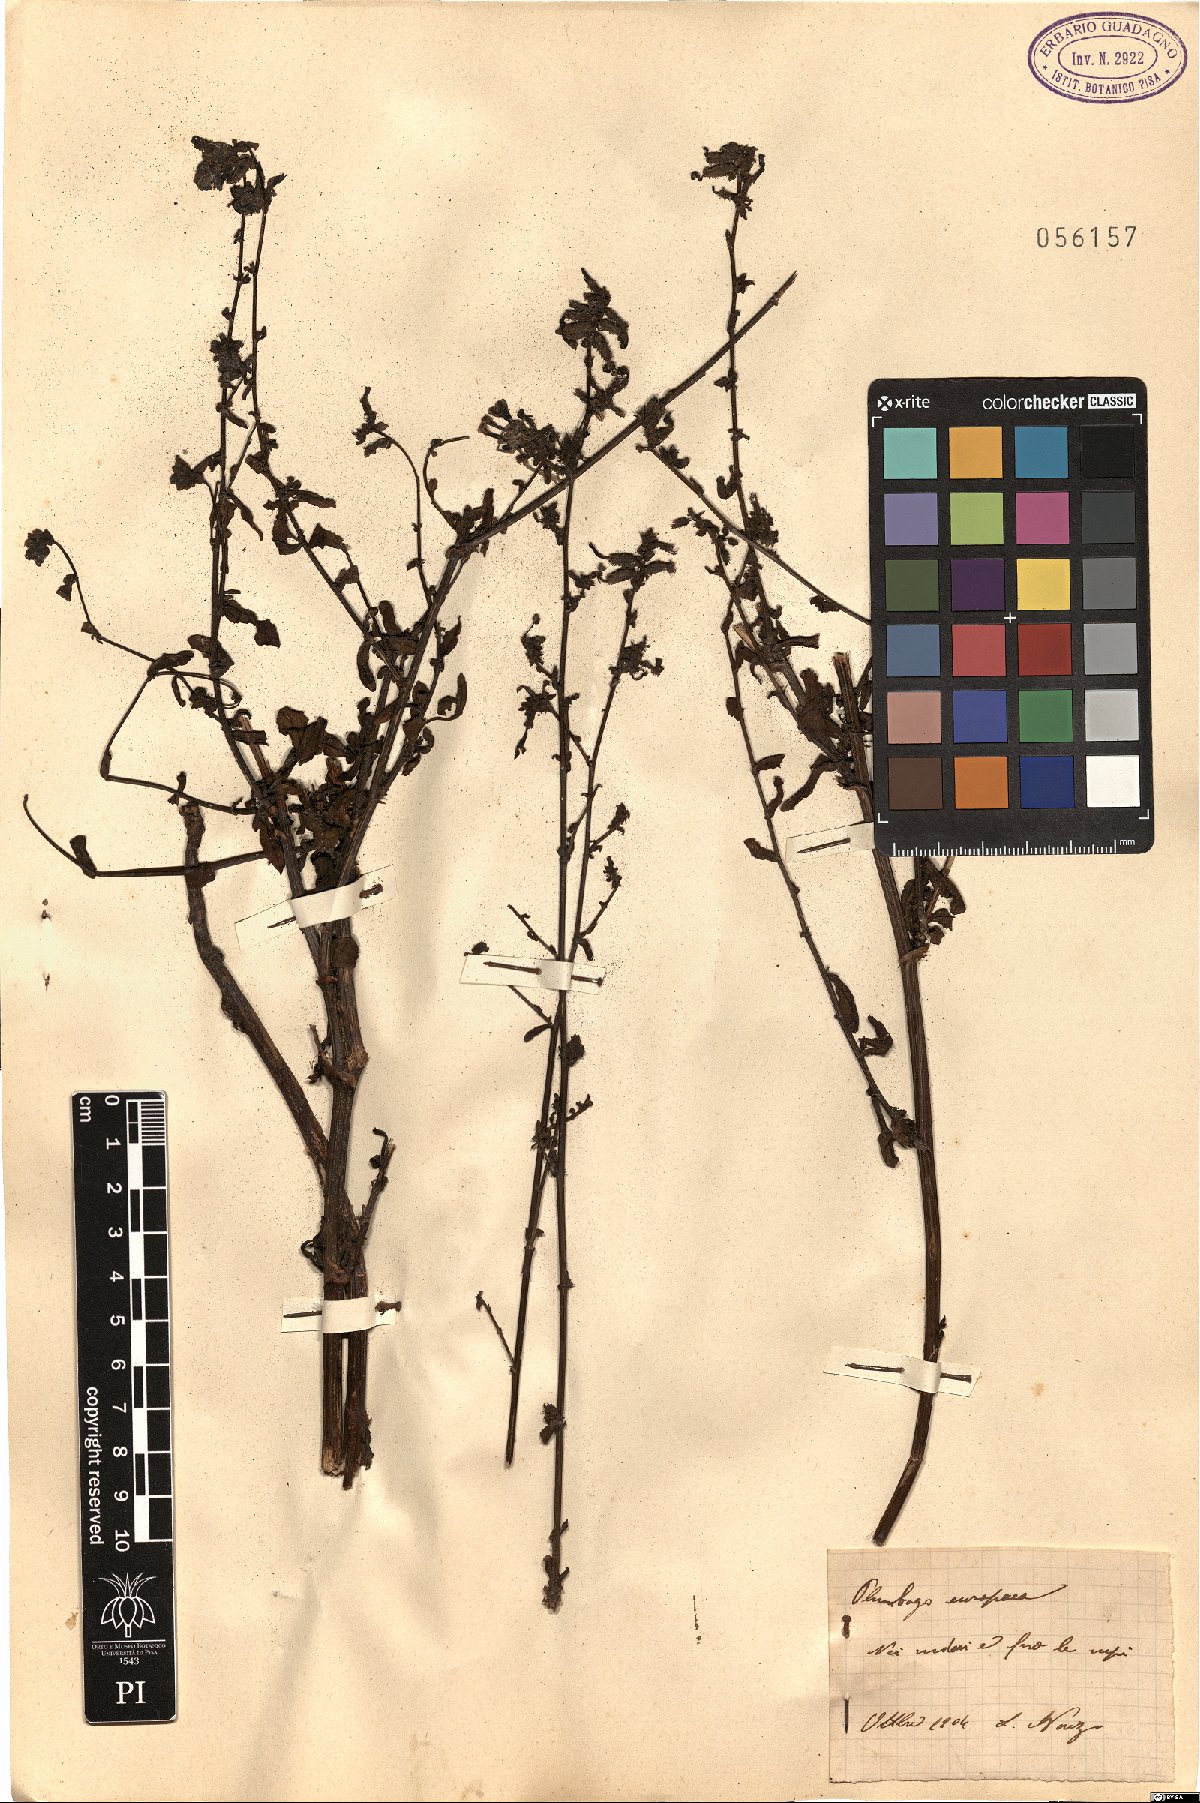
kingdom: Plantae
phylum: Tracheophyta
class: Magnoliopsida
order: Caryophyllales
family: Plumbaginaceae
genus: Plumbago
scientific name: Plumbago europaea
